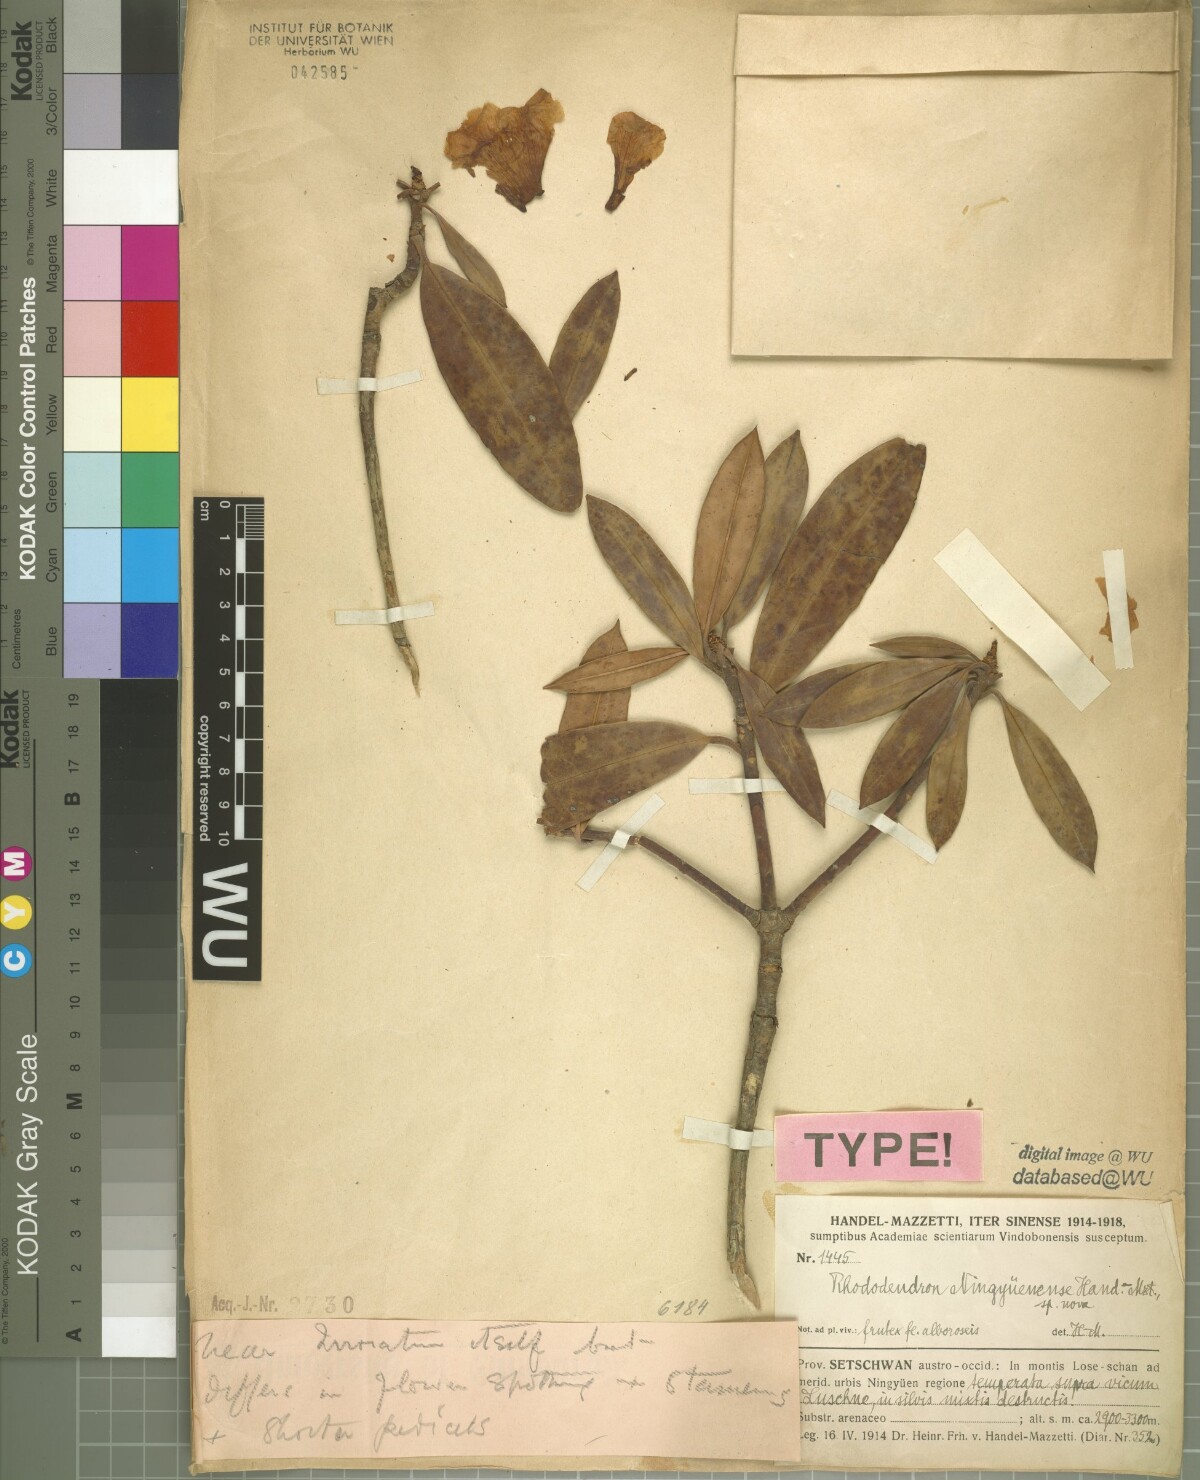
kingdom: Plantae
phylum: Tracheophyta
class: Magnoliopsida
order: Ericales
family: Ericaceae
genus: Rhododendron
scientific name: Rhododendron irroratum
